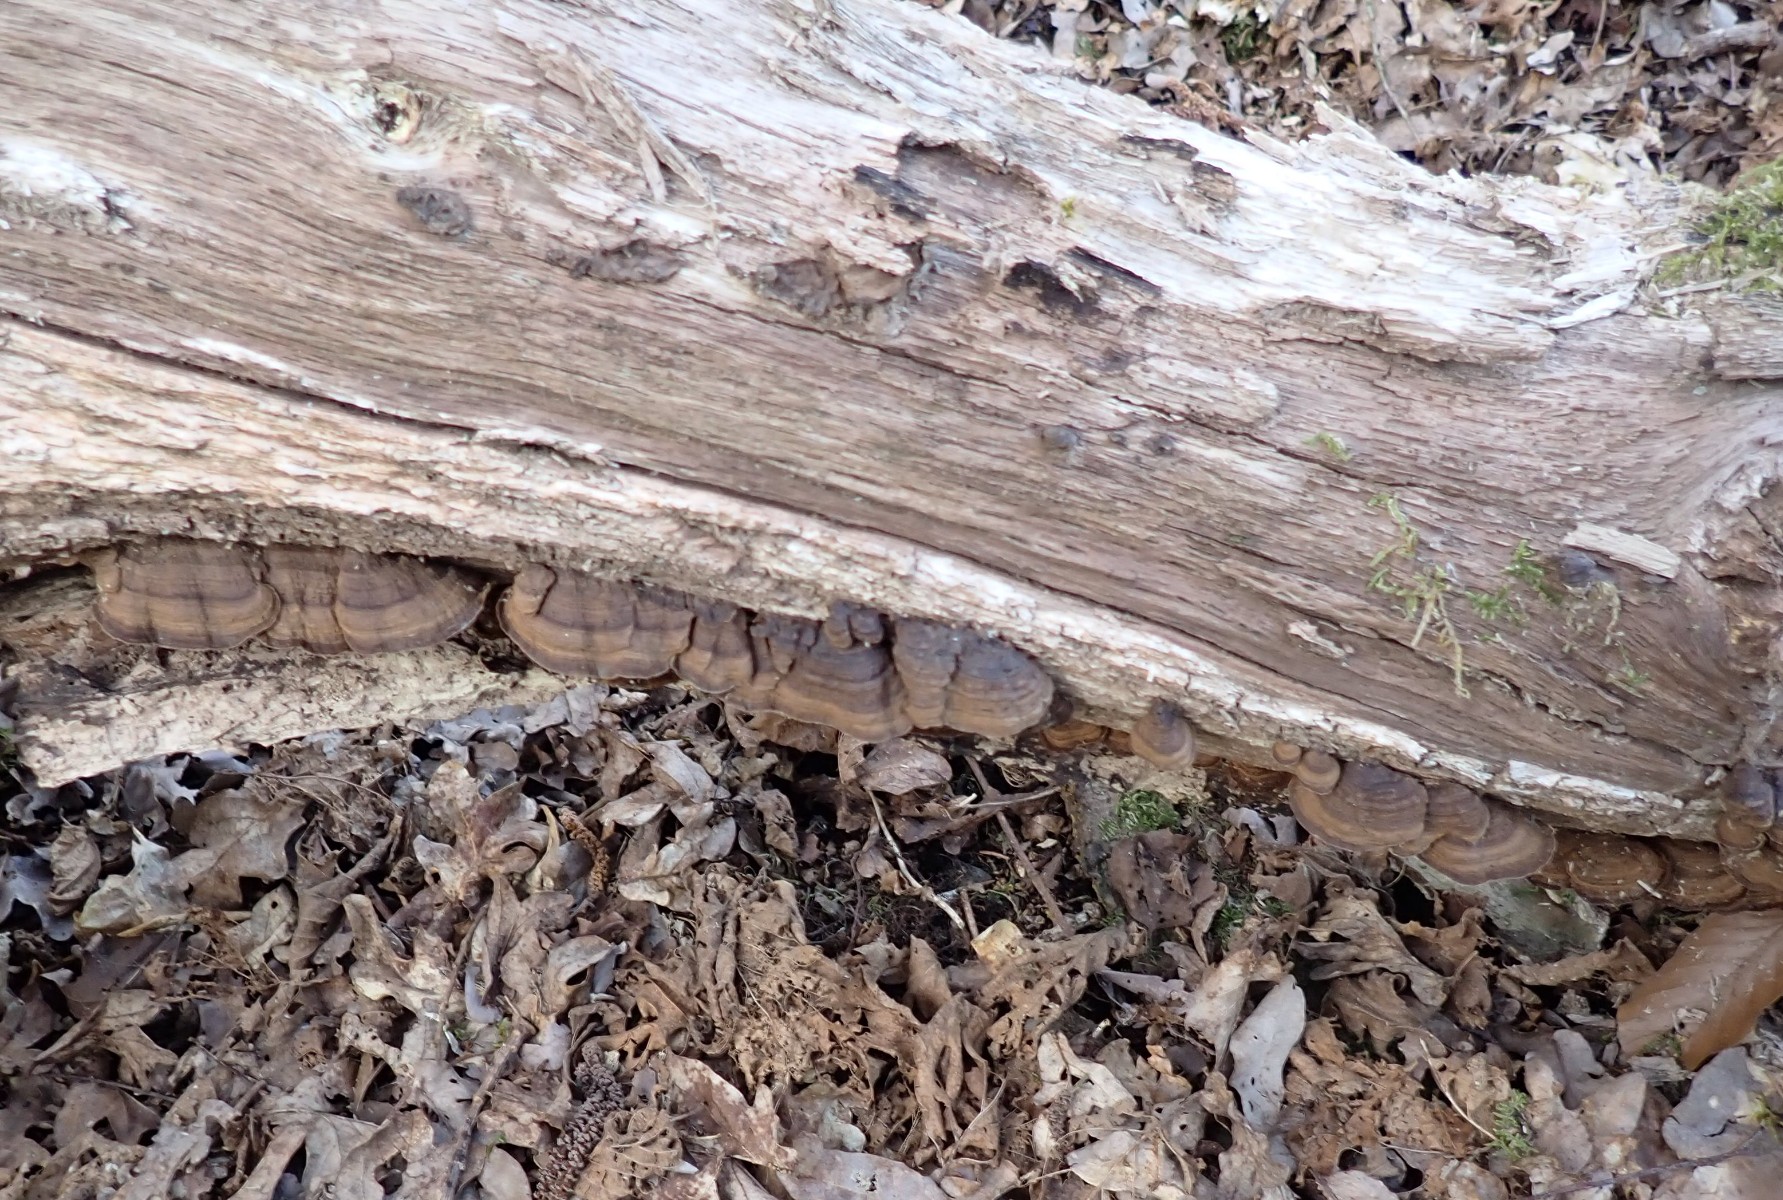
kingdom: Fungi
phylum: Basidiomycota
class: Agaricomycetes
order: Hymenochaetales
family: Hymenochaetaceae
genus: Hymenochaete
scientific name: Hymenochaete rubiginosa
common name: stiv ruslædersvamp
